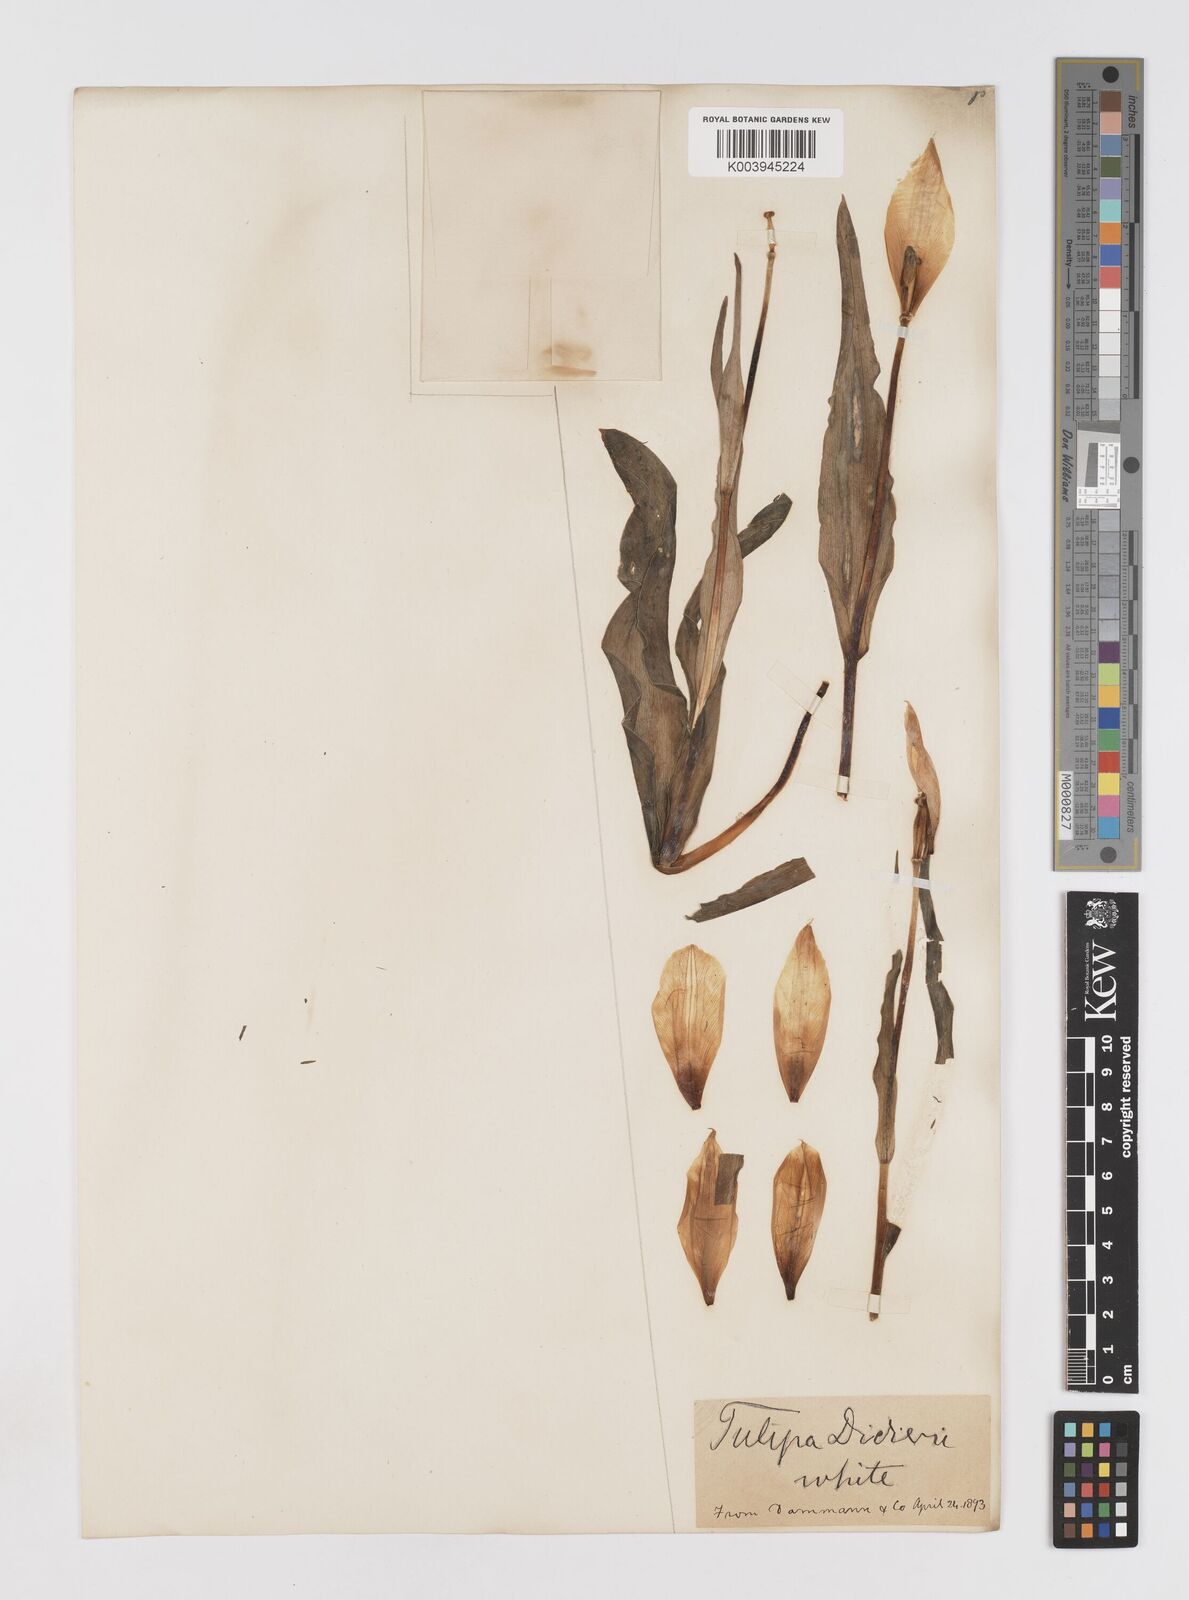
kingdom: Plantae
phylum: Tracheophyta
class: Liliopsida
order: Liliales
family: Liliaceae
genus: Tulipa
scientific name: Tulipa gesneriana
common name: Garden tulip
